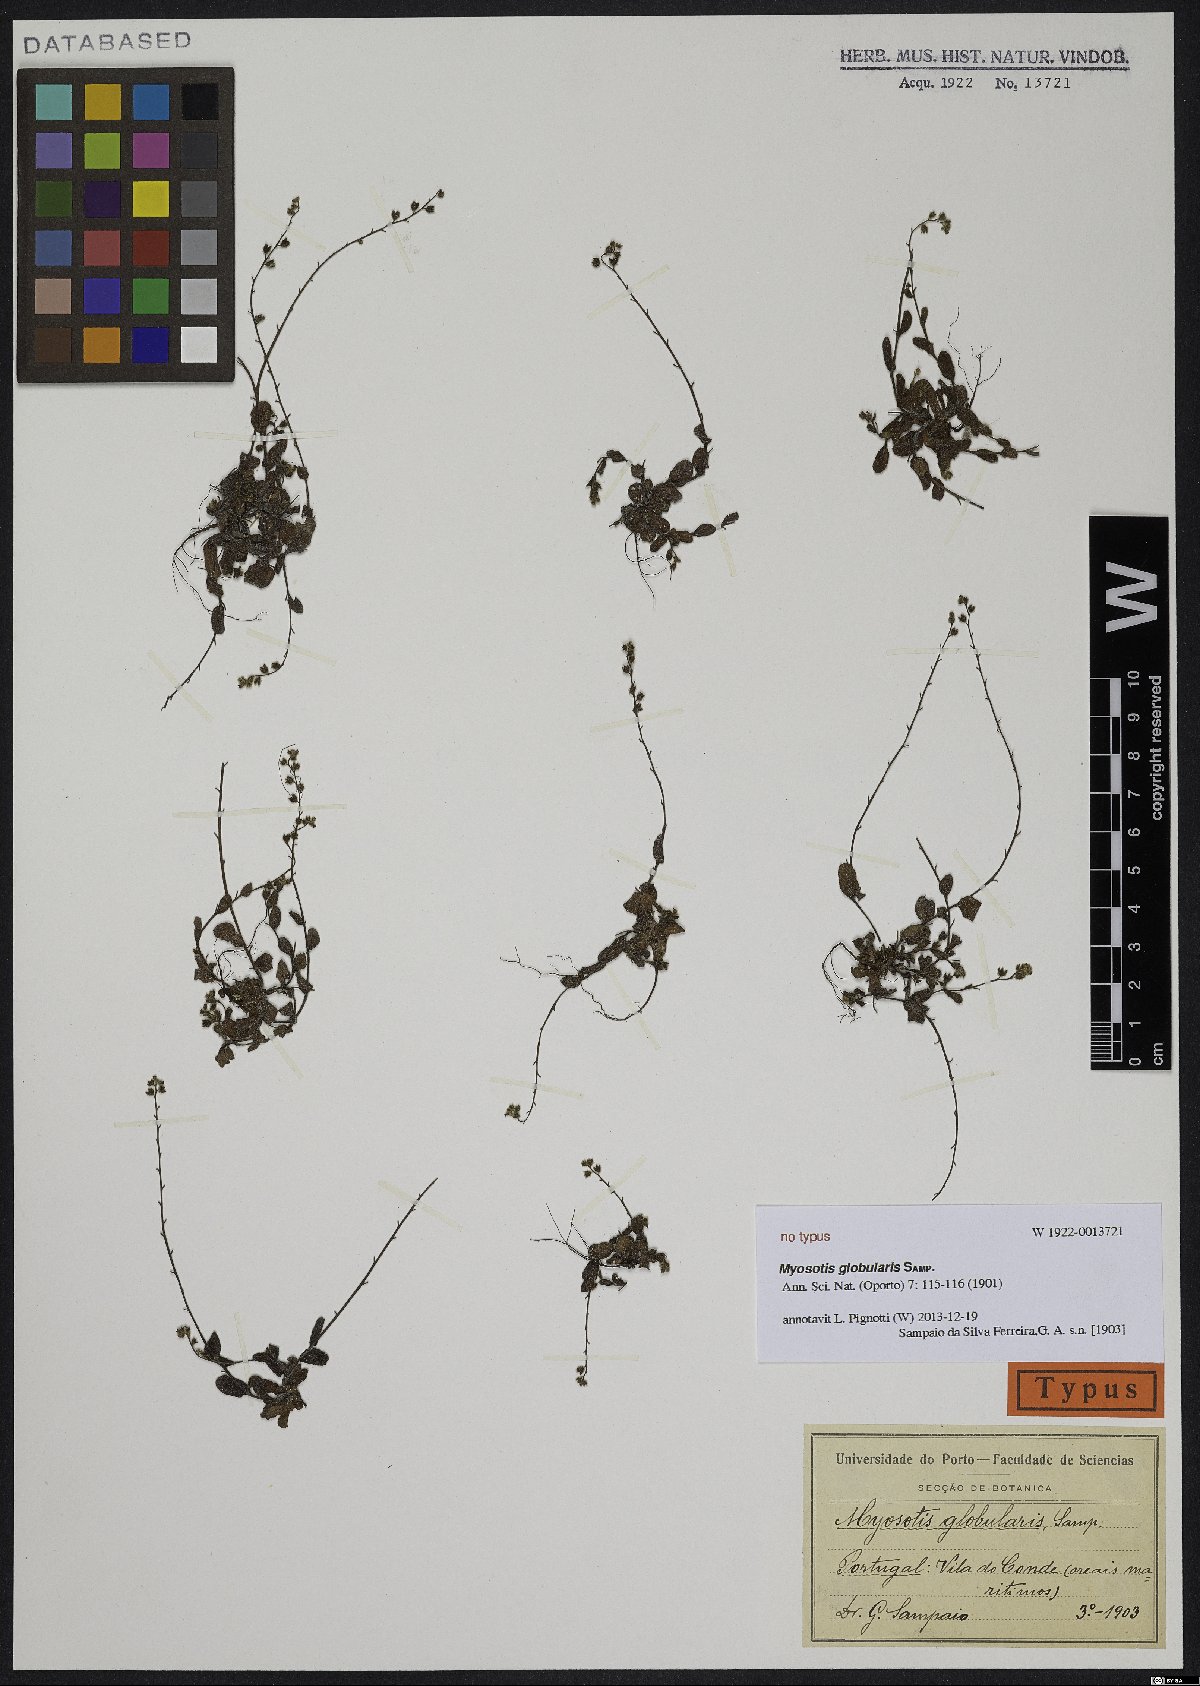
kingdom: Plantae
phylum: Tracheophyta
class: Magnoliopsida
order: Boraginales
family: Boraginaceae
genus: Myosotis
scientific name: Myosotis ramosissima
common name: Early forget-me-not
